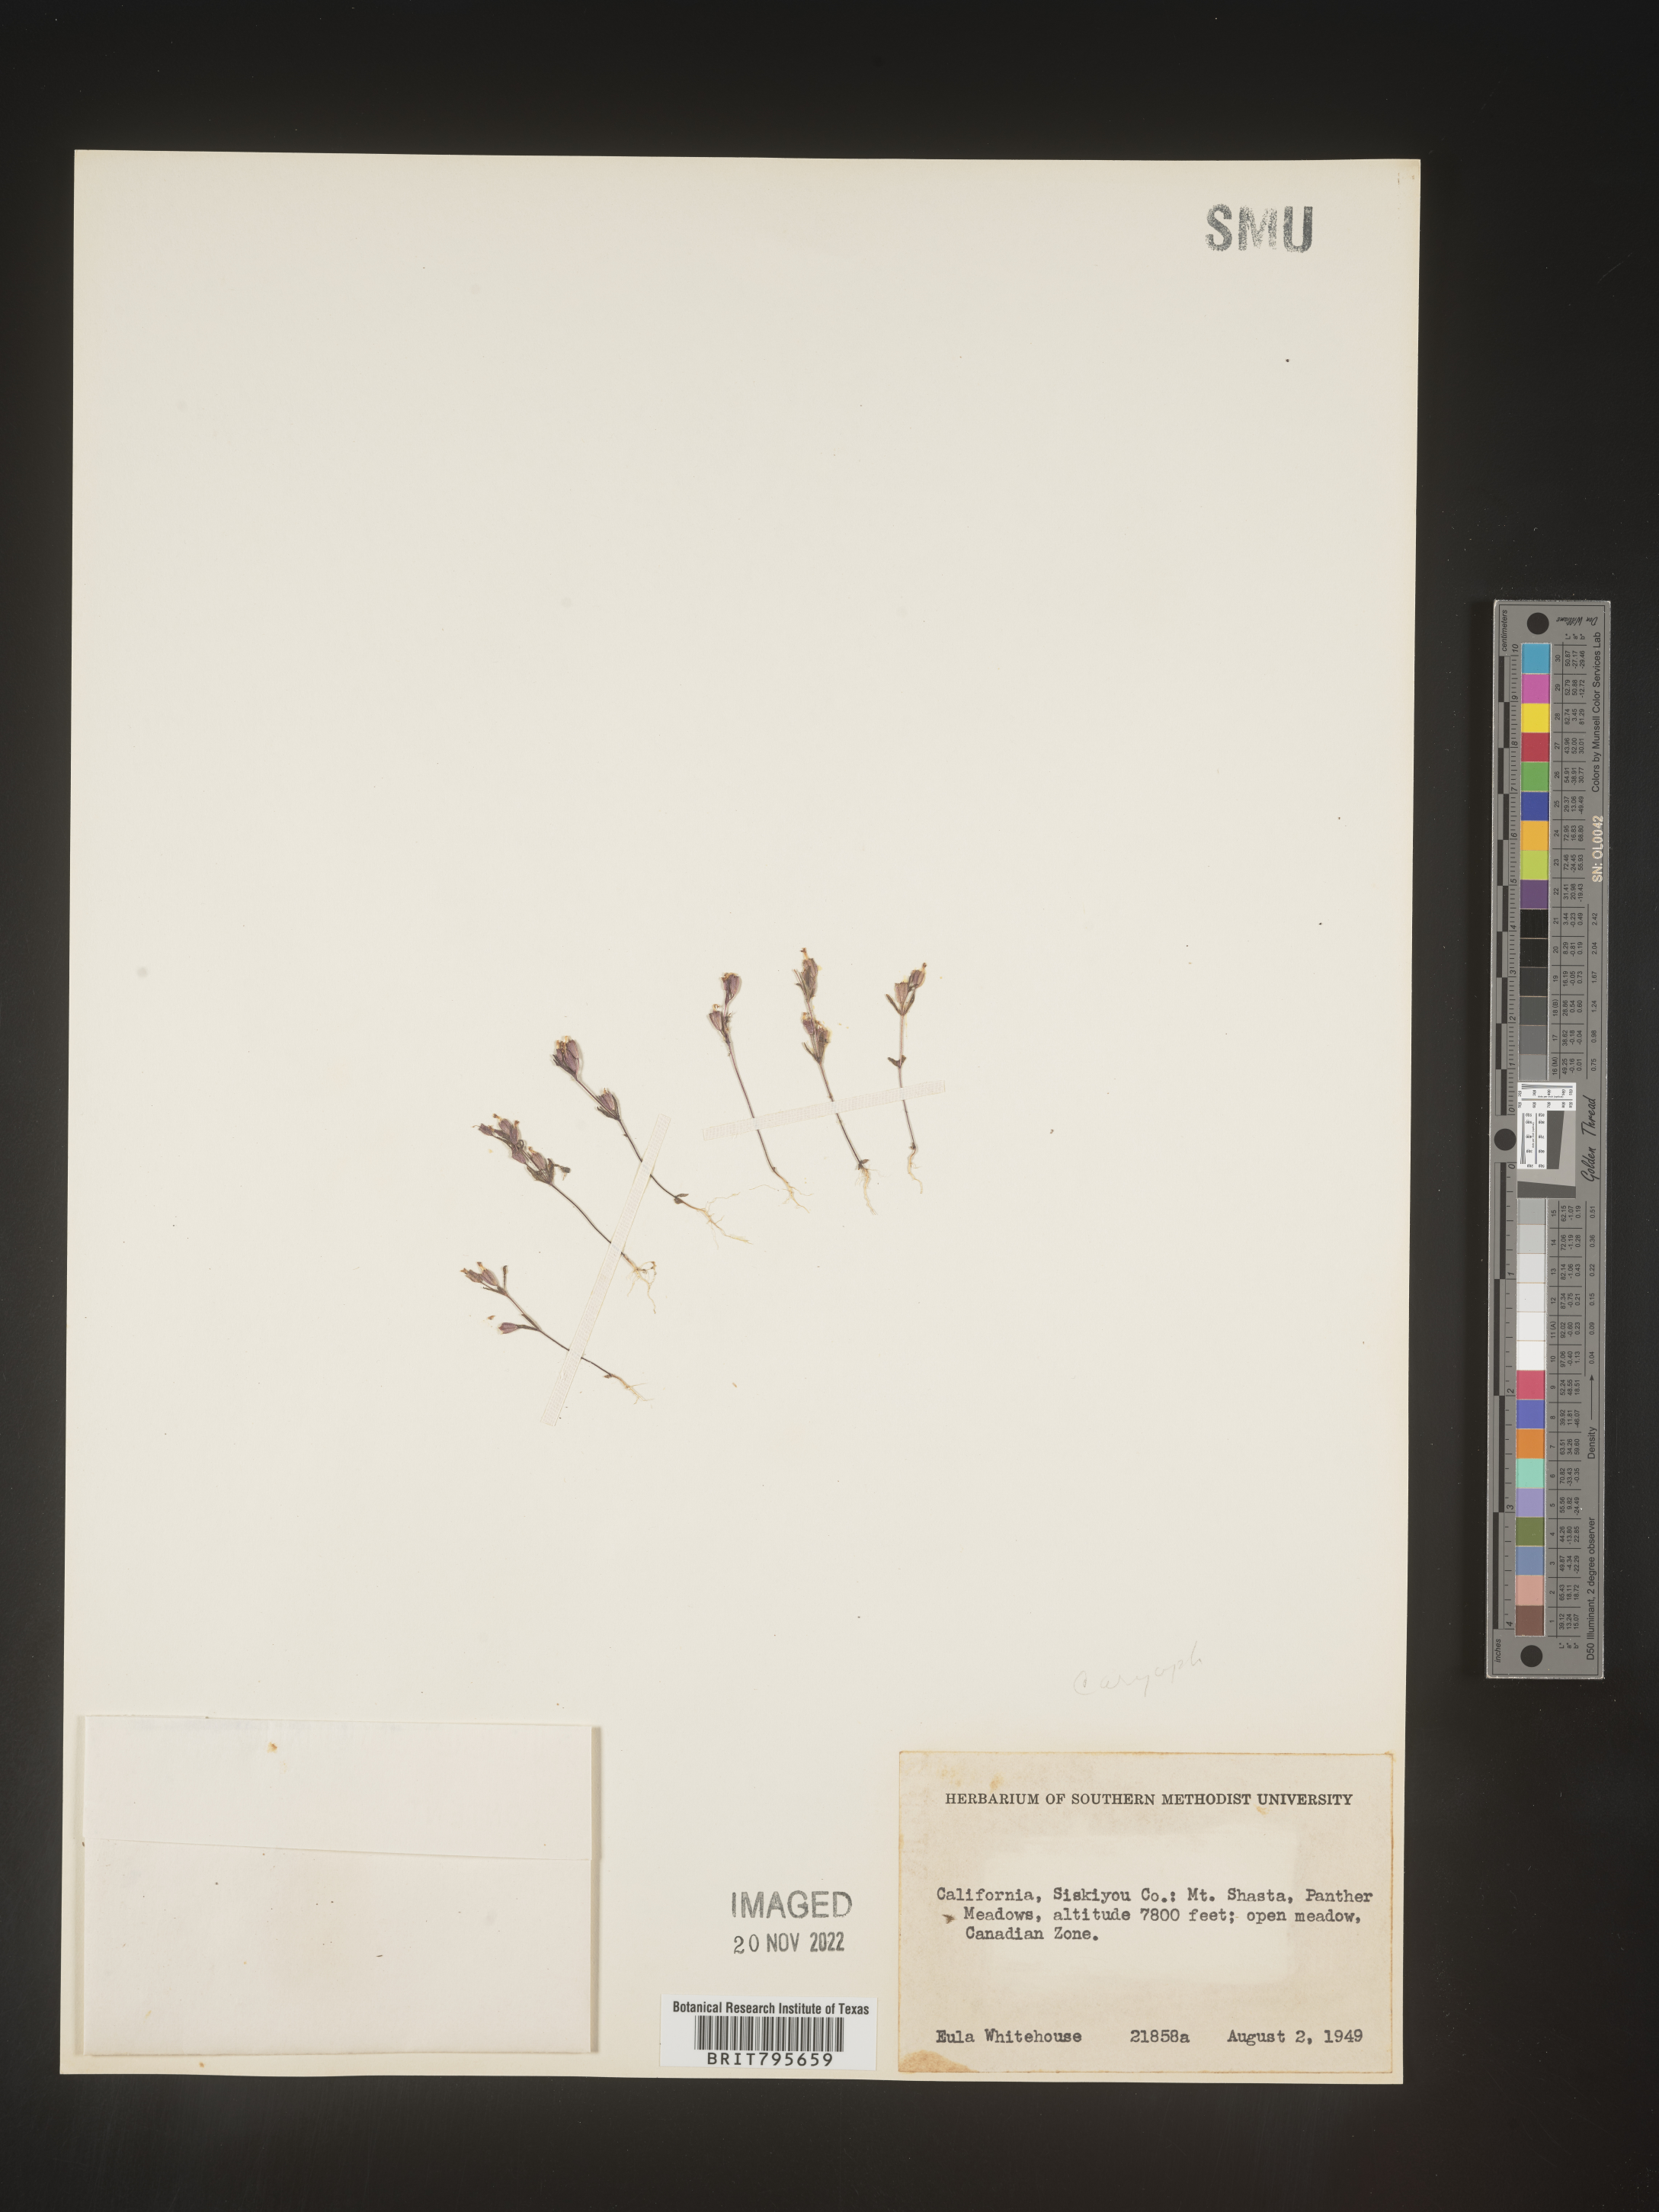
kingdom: Plantae
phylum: Tracheophyta
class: Magnoliopsida
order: Caryophyllales
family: Caryophyllaceae
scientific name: Caryophyllaceae
